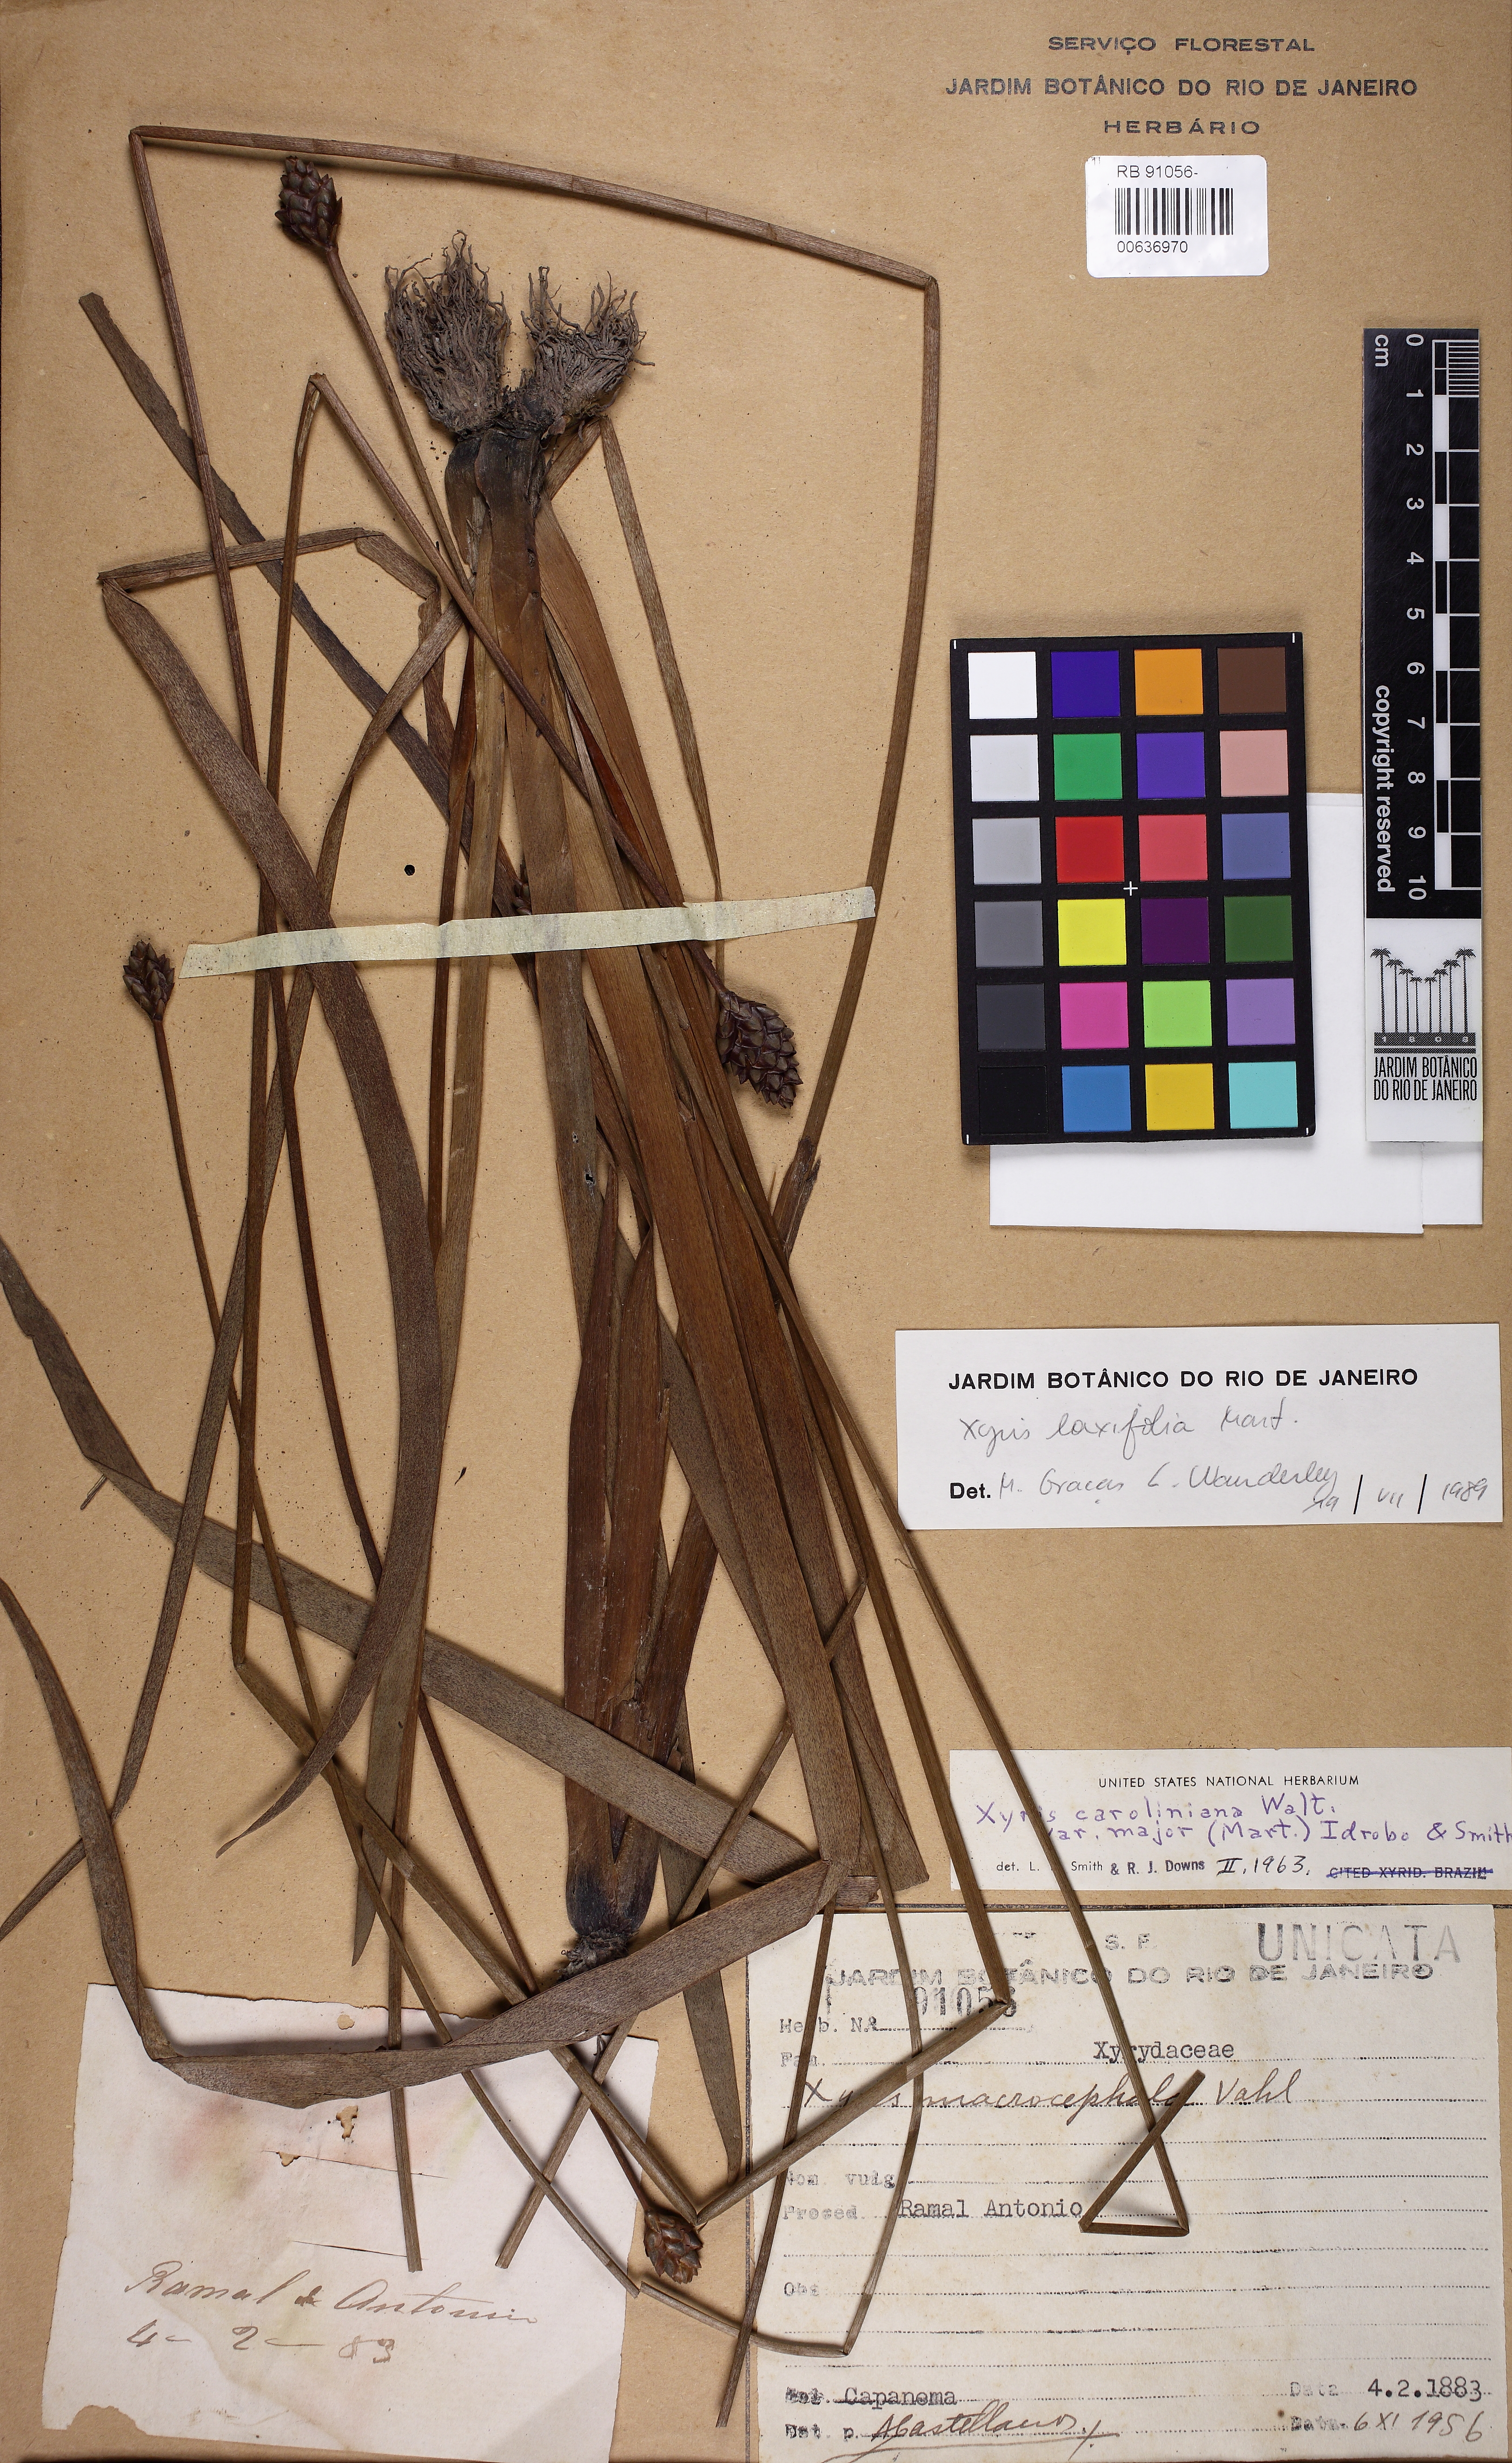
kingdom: Plantae
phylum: Tracheophyta
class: Liliopsida
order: Poales
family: Xyridaceae
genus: Xyris
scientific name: Xyris jupicai
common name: Richard's yelloweyed grass
